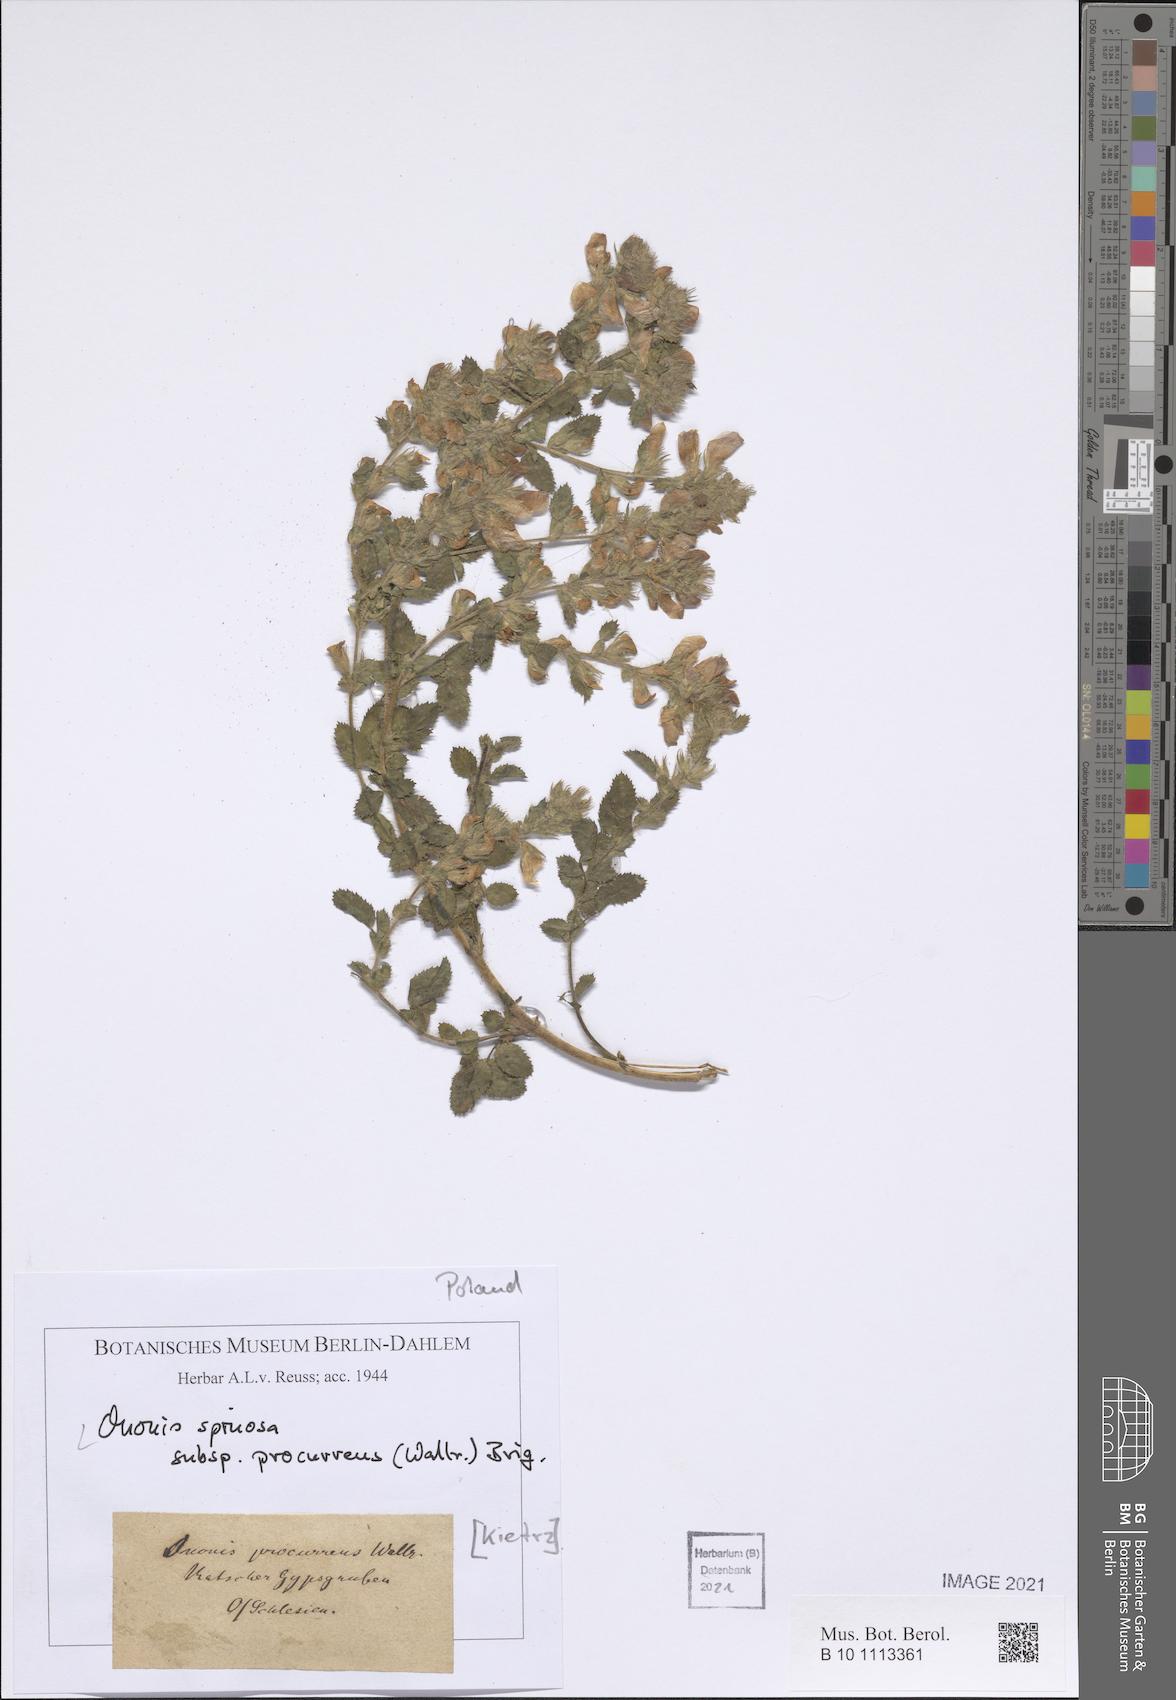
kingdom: Plantae
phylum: Tracheophyta
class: Magnoliopsida
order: Fabales
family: Fabaceae
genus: Ononis
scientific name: Ononis spinosa
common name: Spiny restharrow
